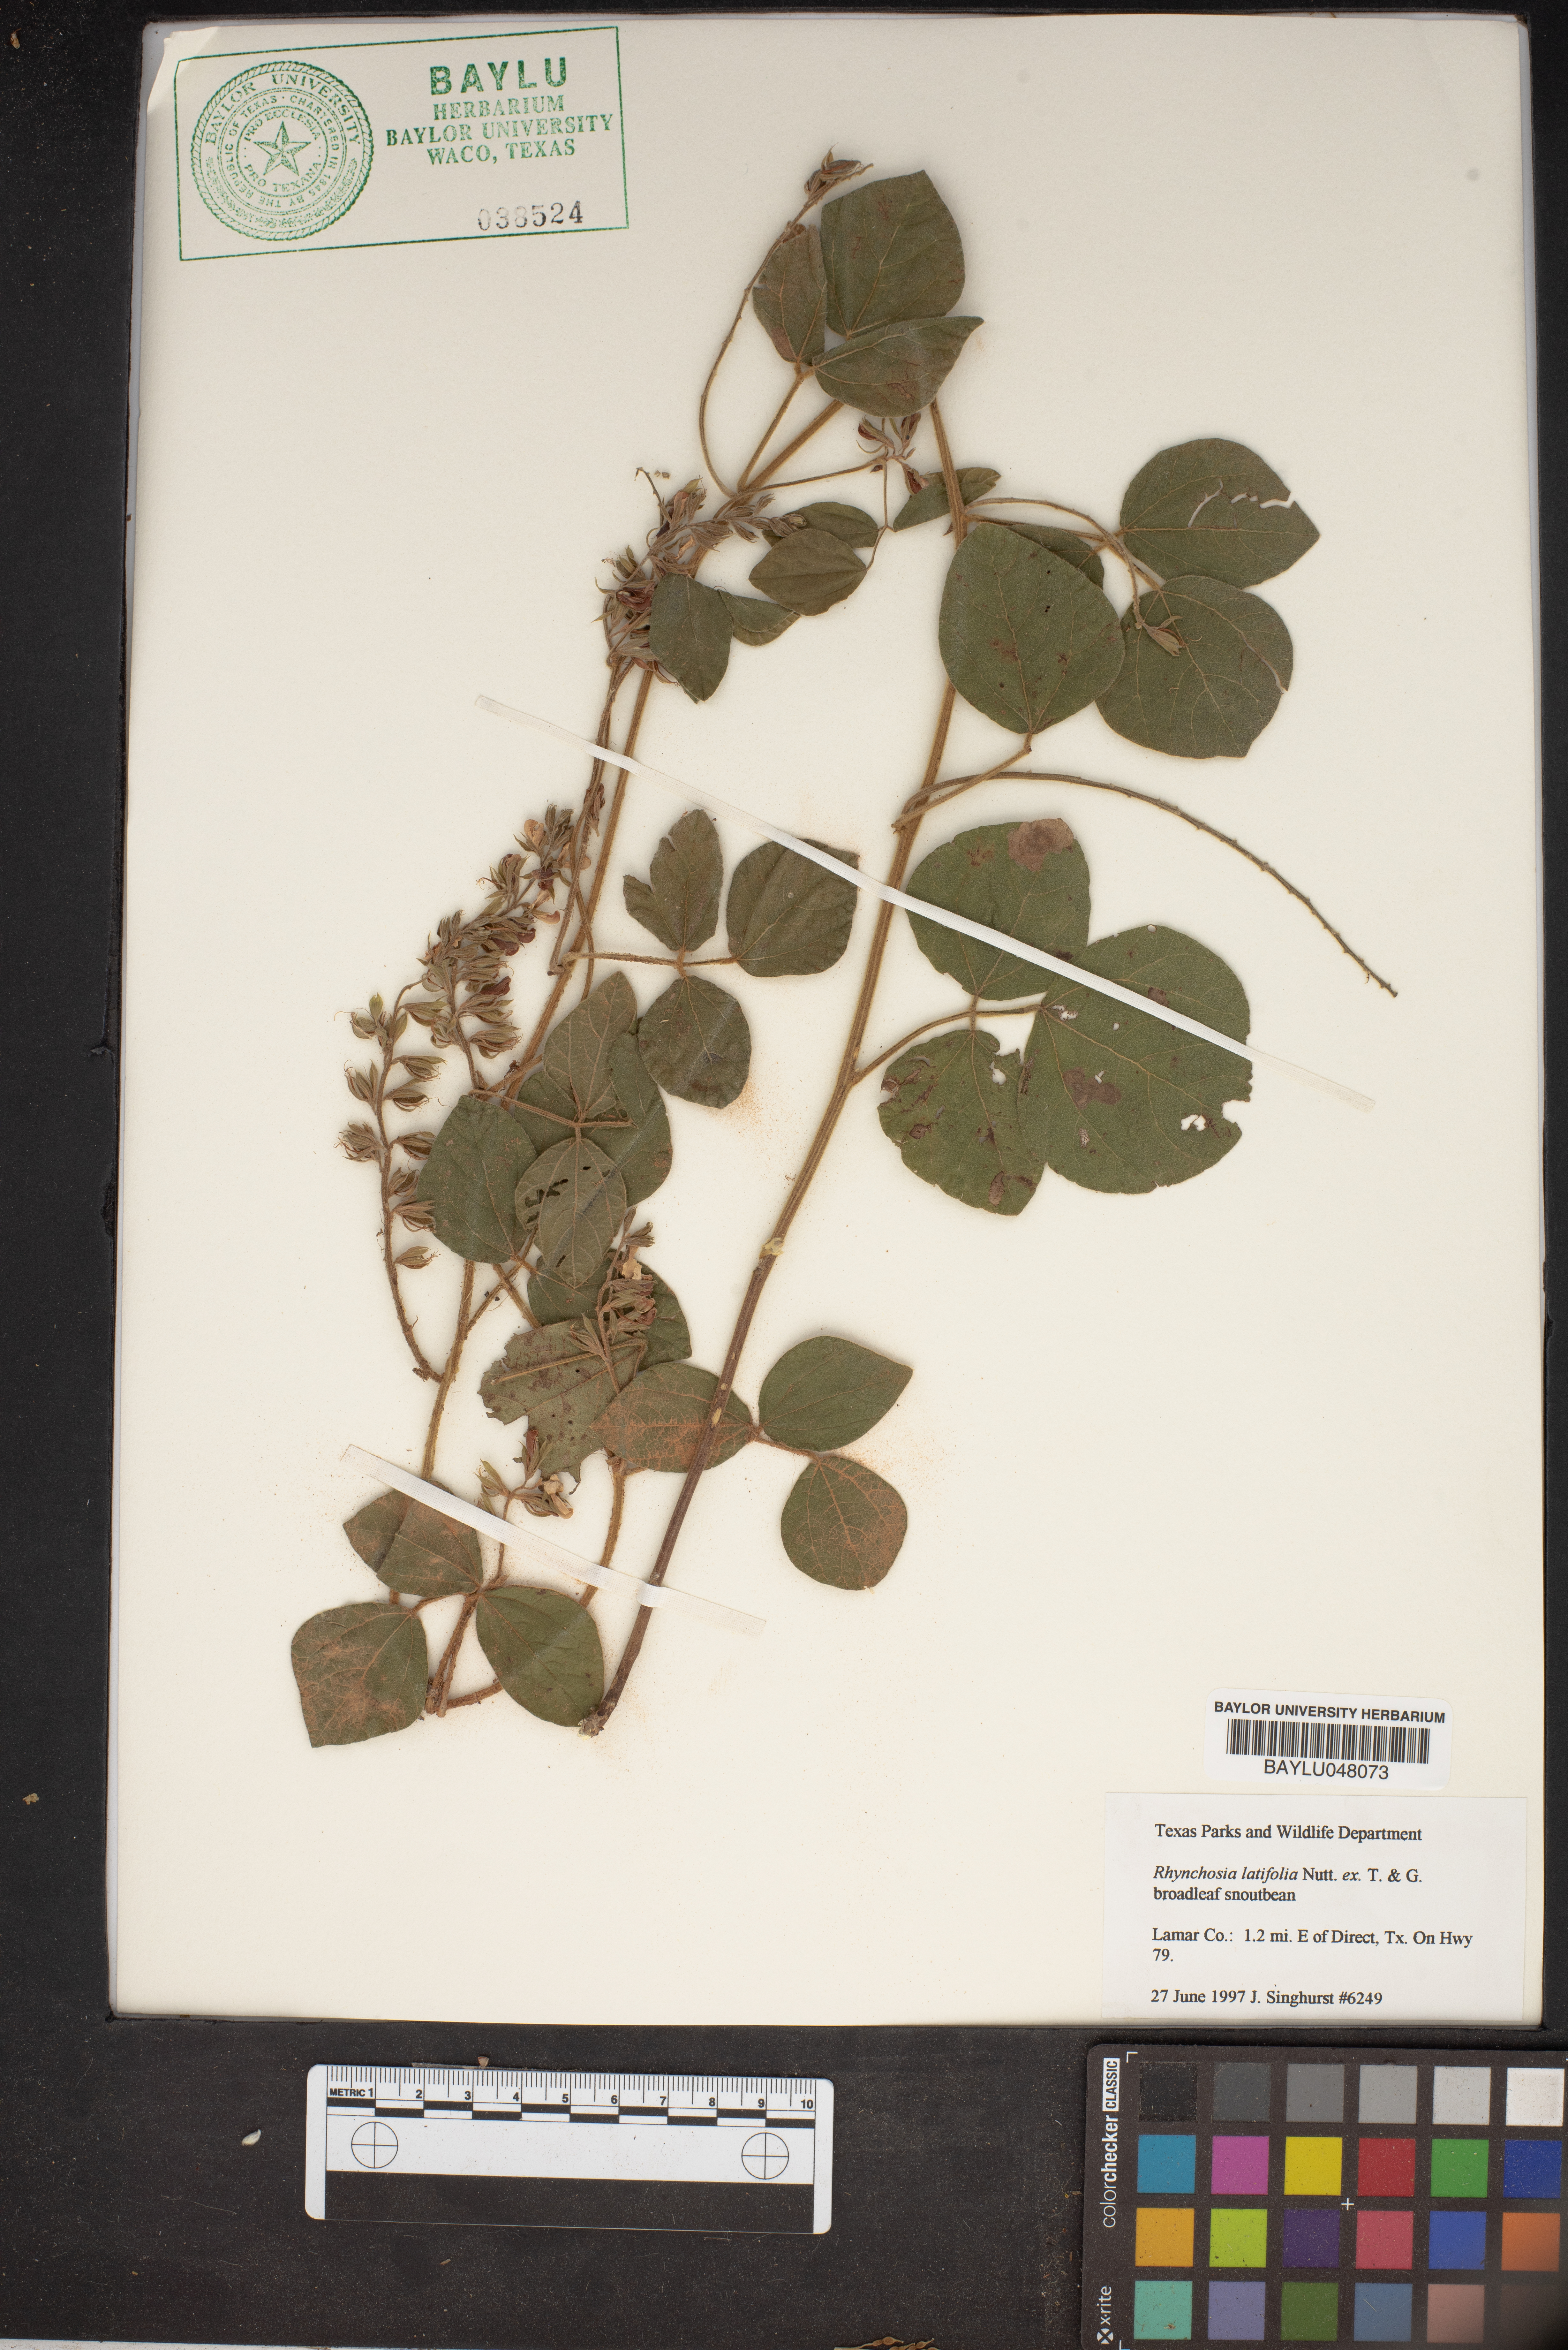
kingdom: Plantae
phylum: Tracheophyta
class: Magnoliopsida
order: Fabales
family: Fabaceae
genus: Rhynchosia
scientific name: Rhynchosia latifolia
